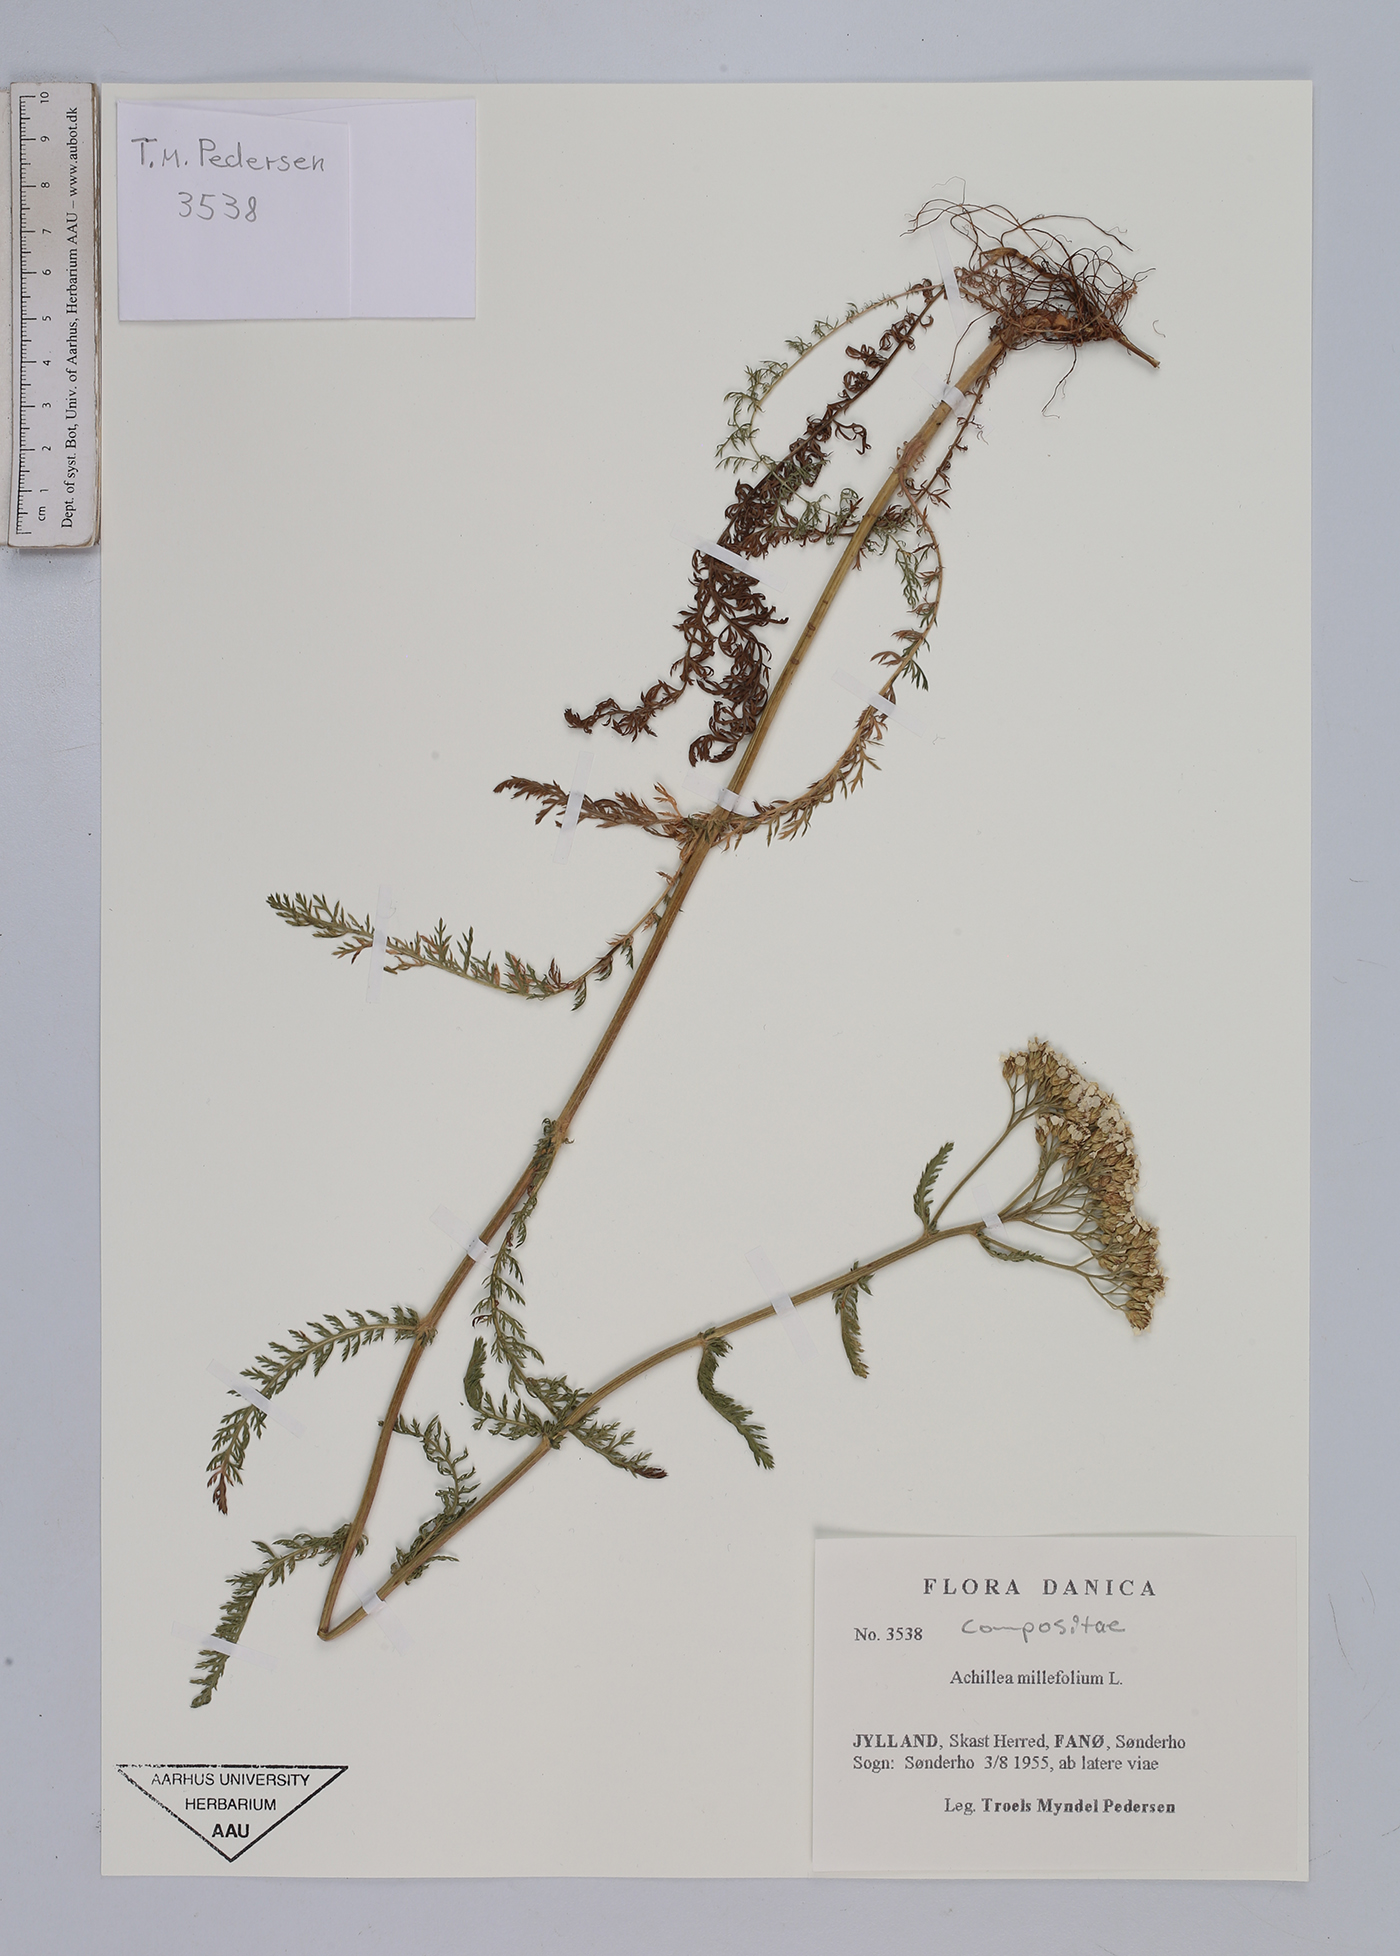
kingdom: Plantae
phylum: Tracheophyta
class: Magnoliopsida
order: Asterales
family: Asteraceae
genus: Achillea
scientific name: Achillea millefolium
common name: Yarrow
